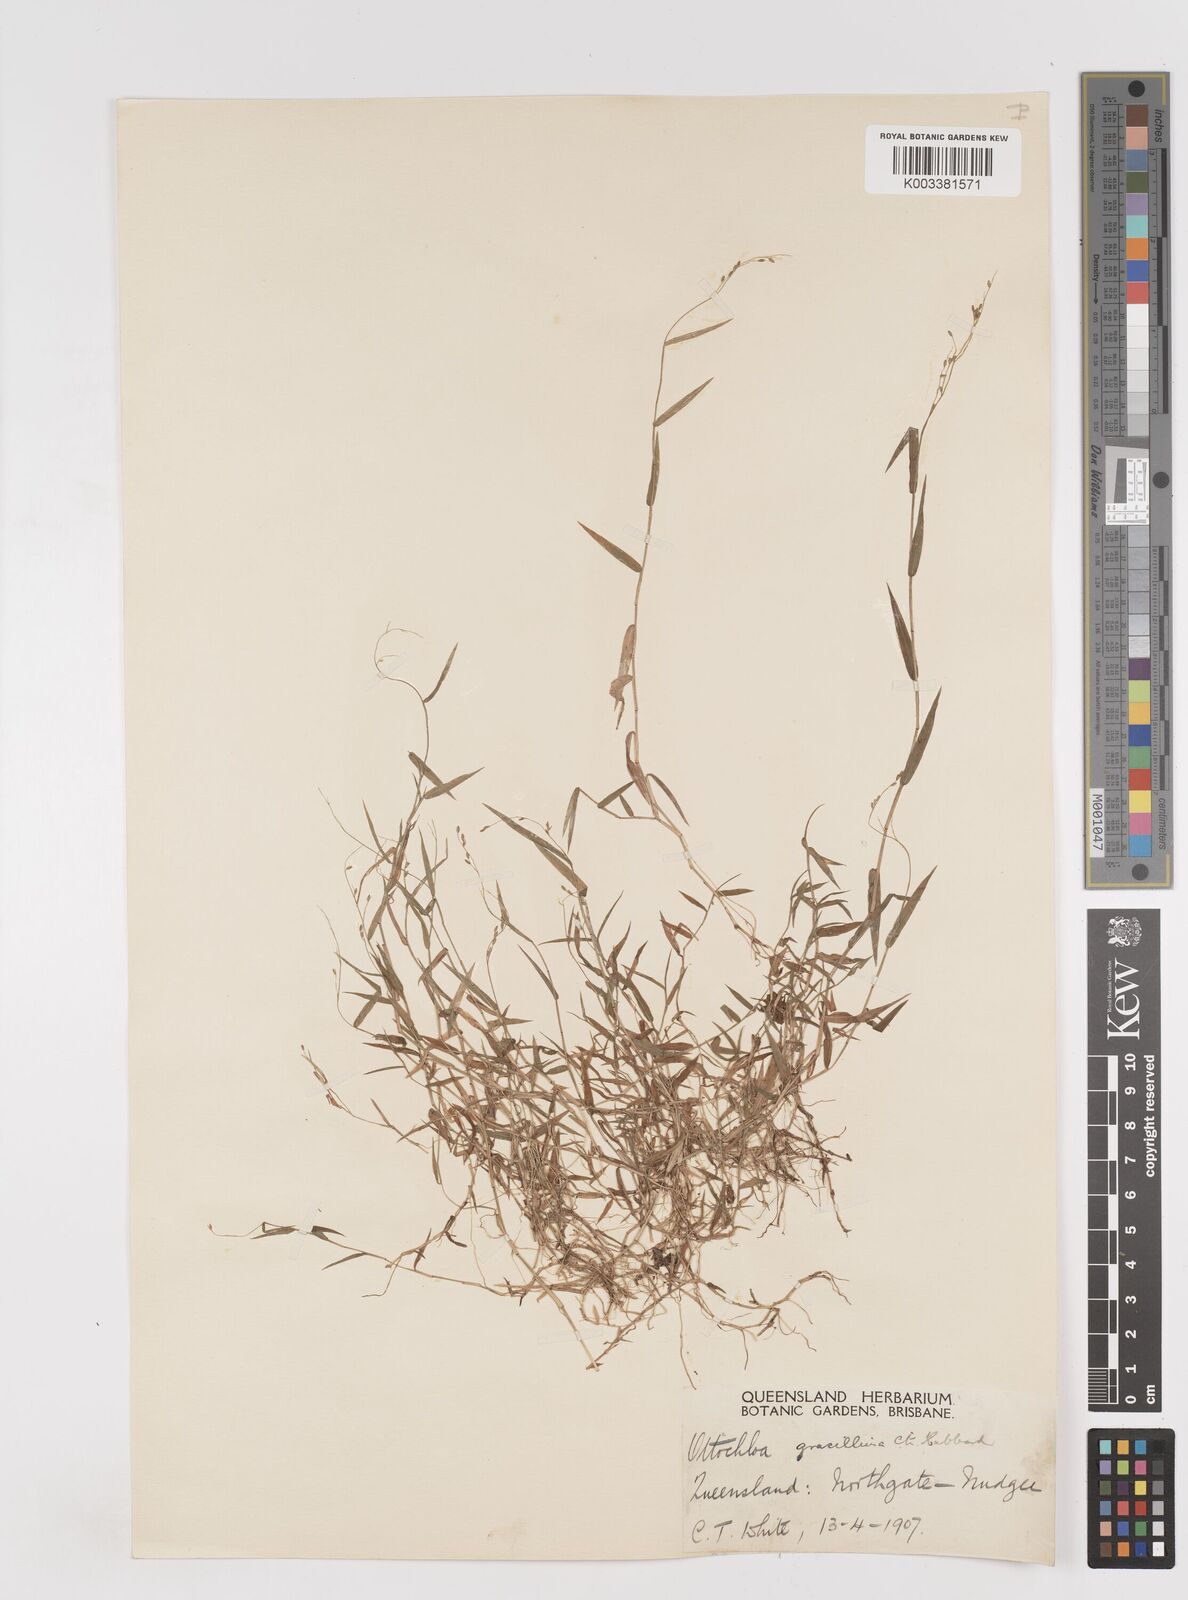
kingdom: Plantae
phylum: Tracheophyta
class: Liliopsida
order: Poales
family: Poaceae
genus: Ottochloa
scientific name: Ottochloa gracillima
